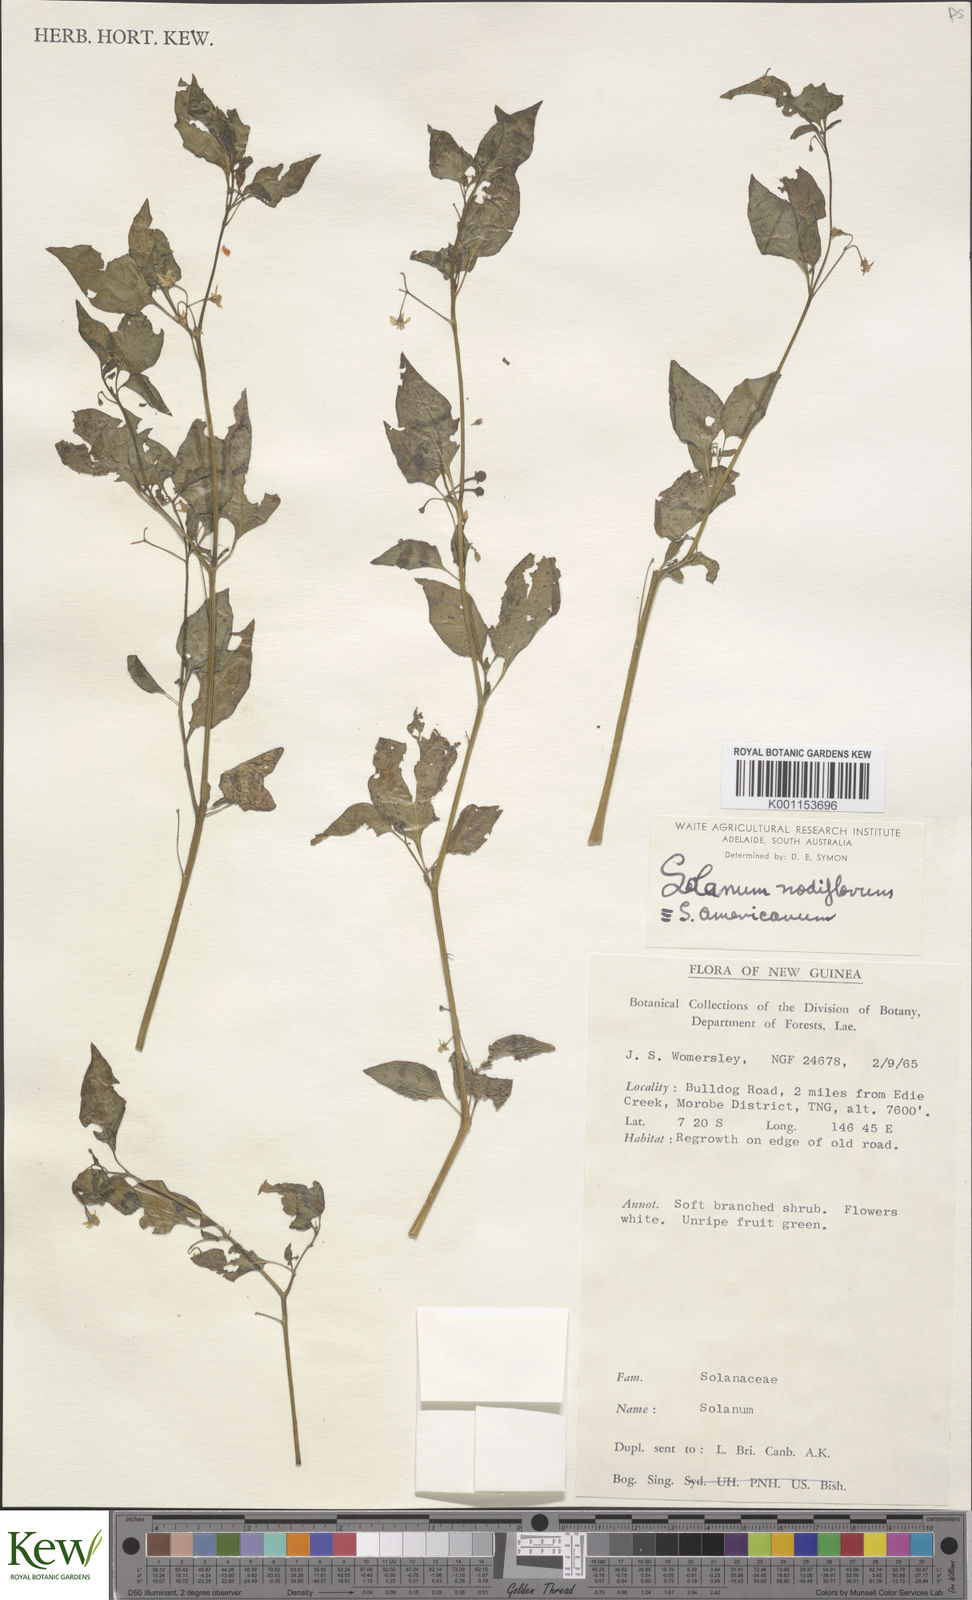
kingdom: Plantae
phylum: Tracheophyta
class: Magnoliopsida
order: Solanales
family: Solanaceae
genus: Solanum
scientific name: Solanum americanum
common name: American black nightshade
